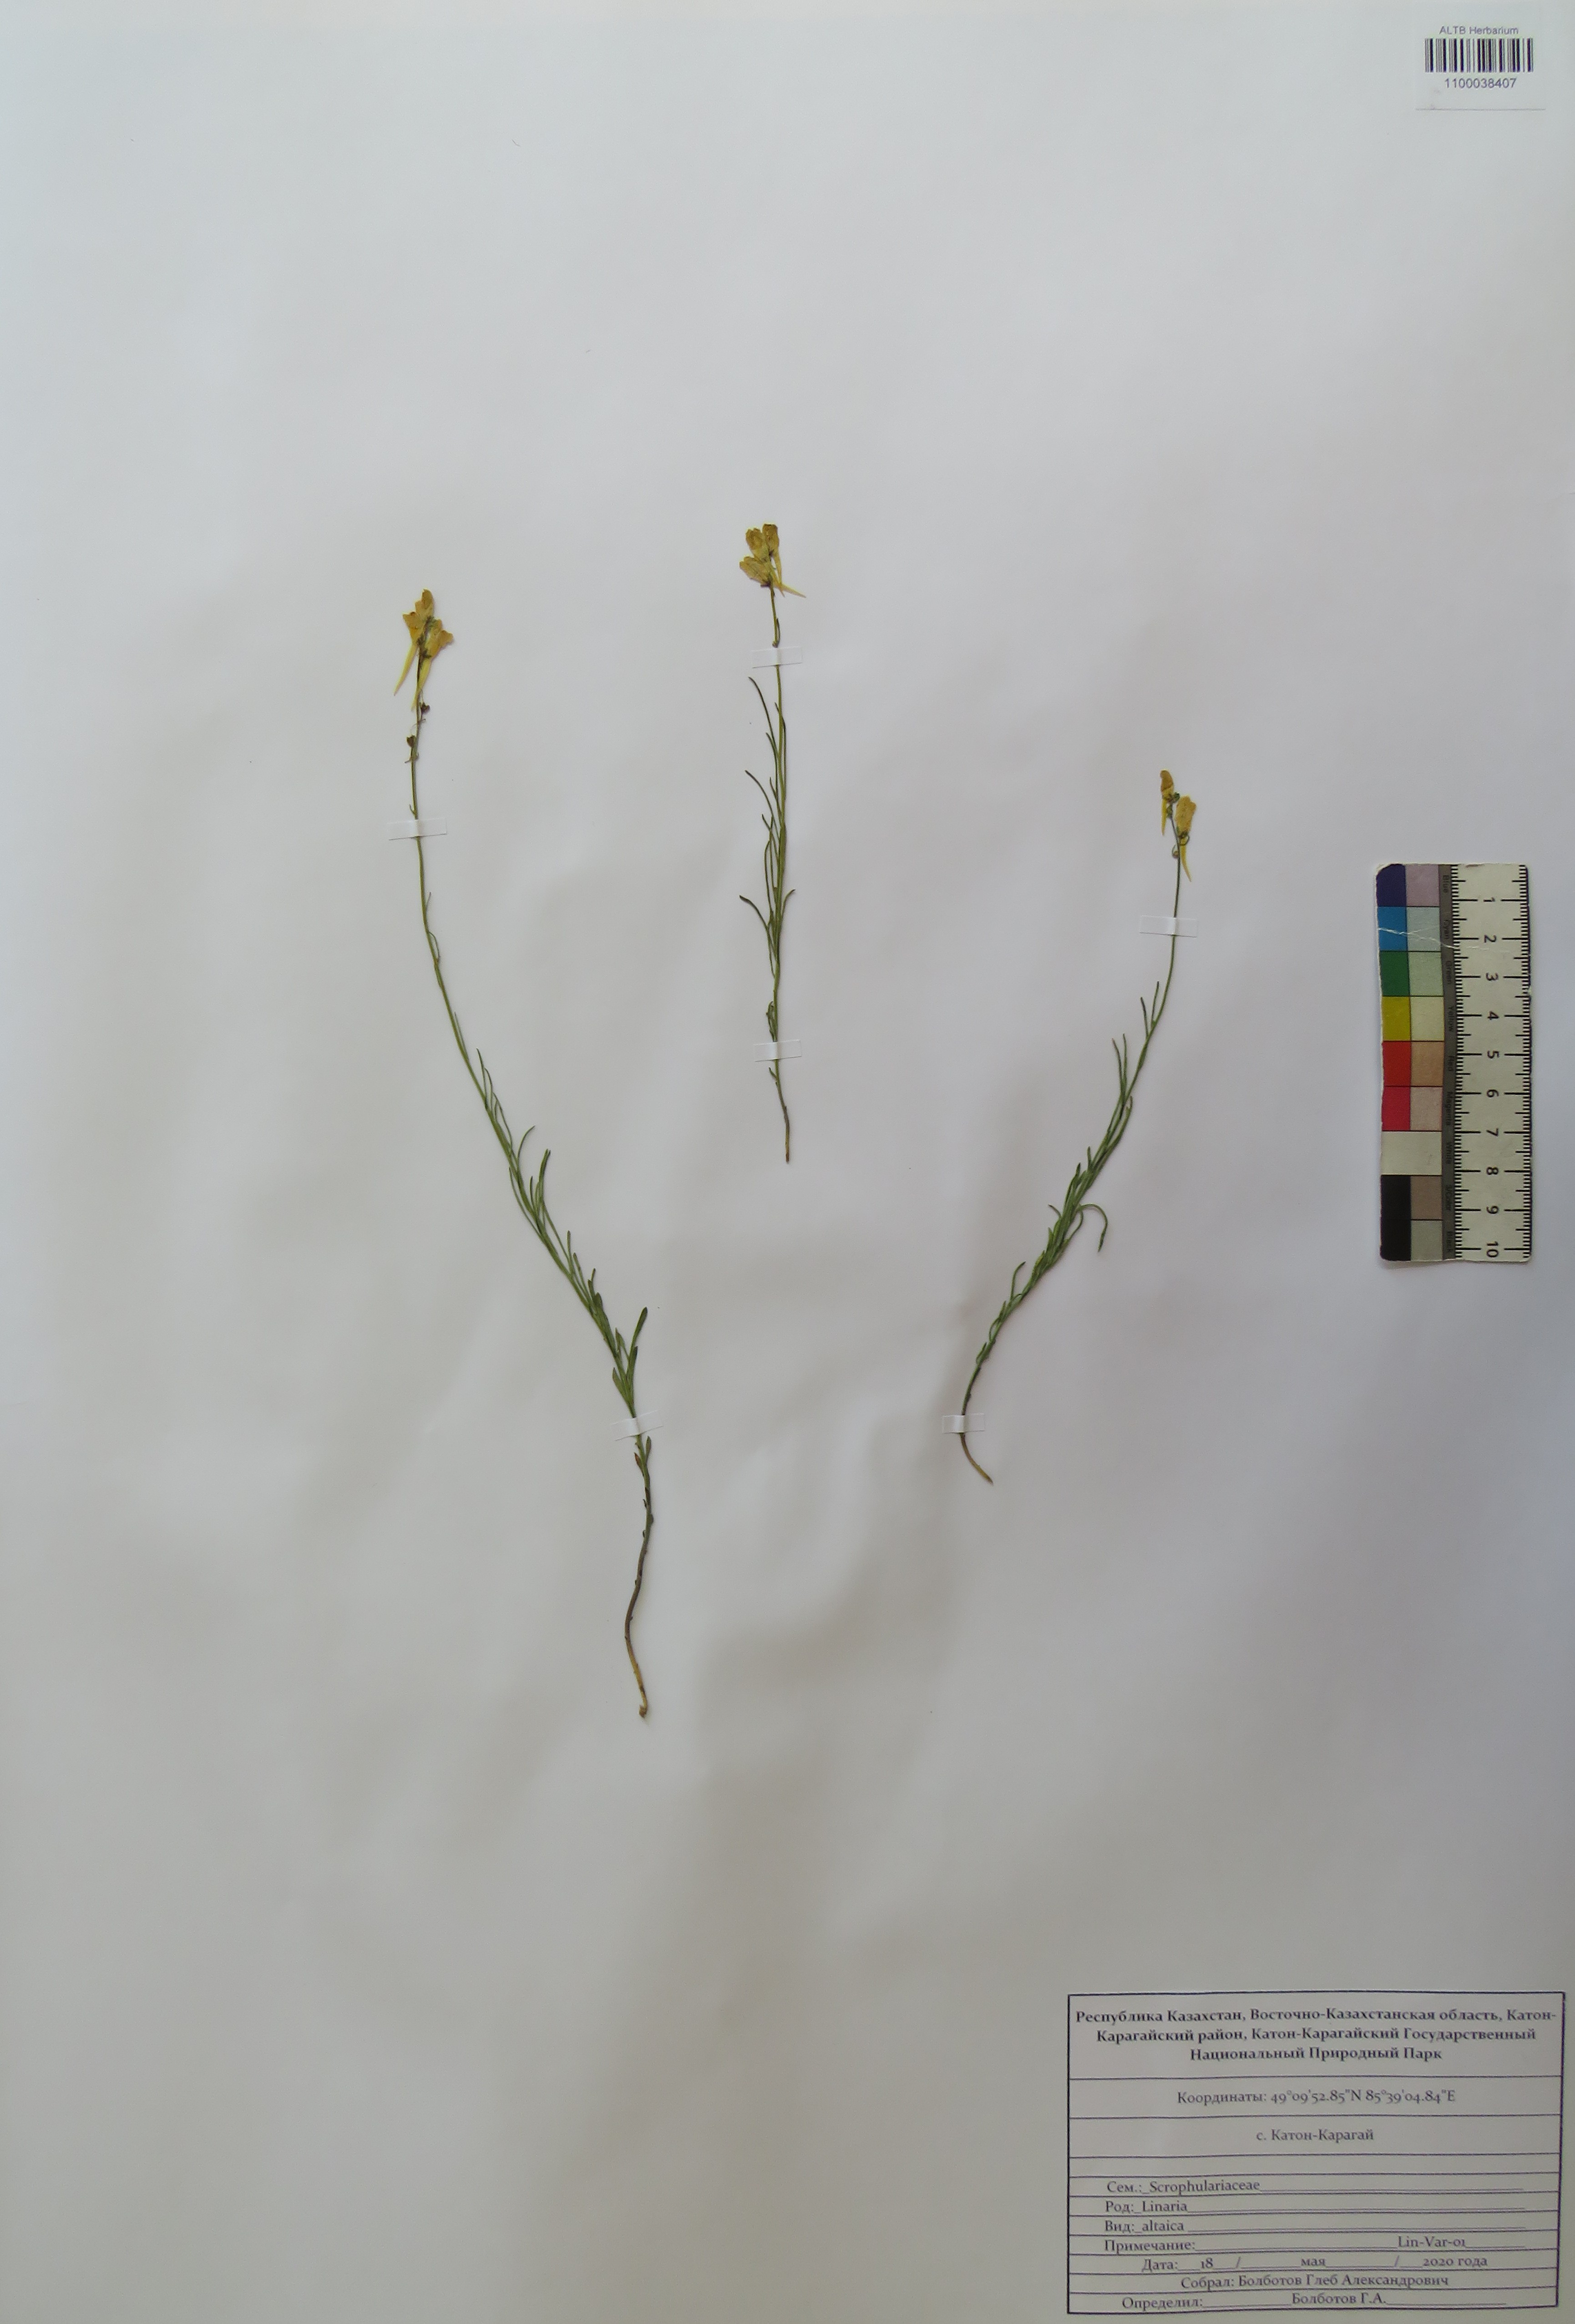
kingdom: Plantae
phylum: Tracheophyta
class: Magnoliopsida
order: Lamiales
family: Plantaginaceae
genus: Linaria
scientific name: Linaria altaica
